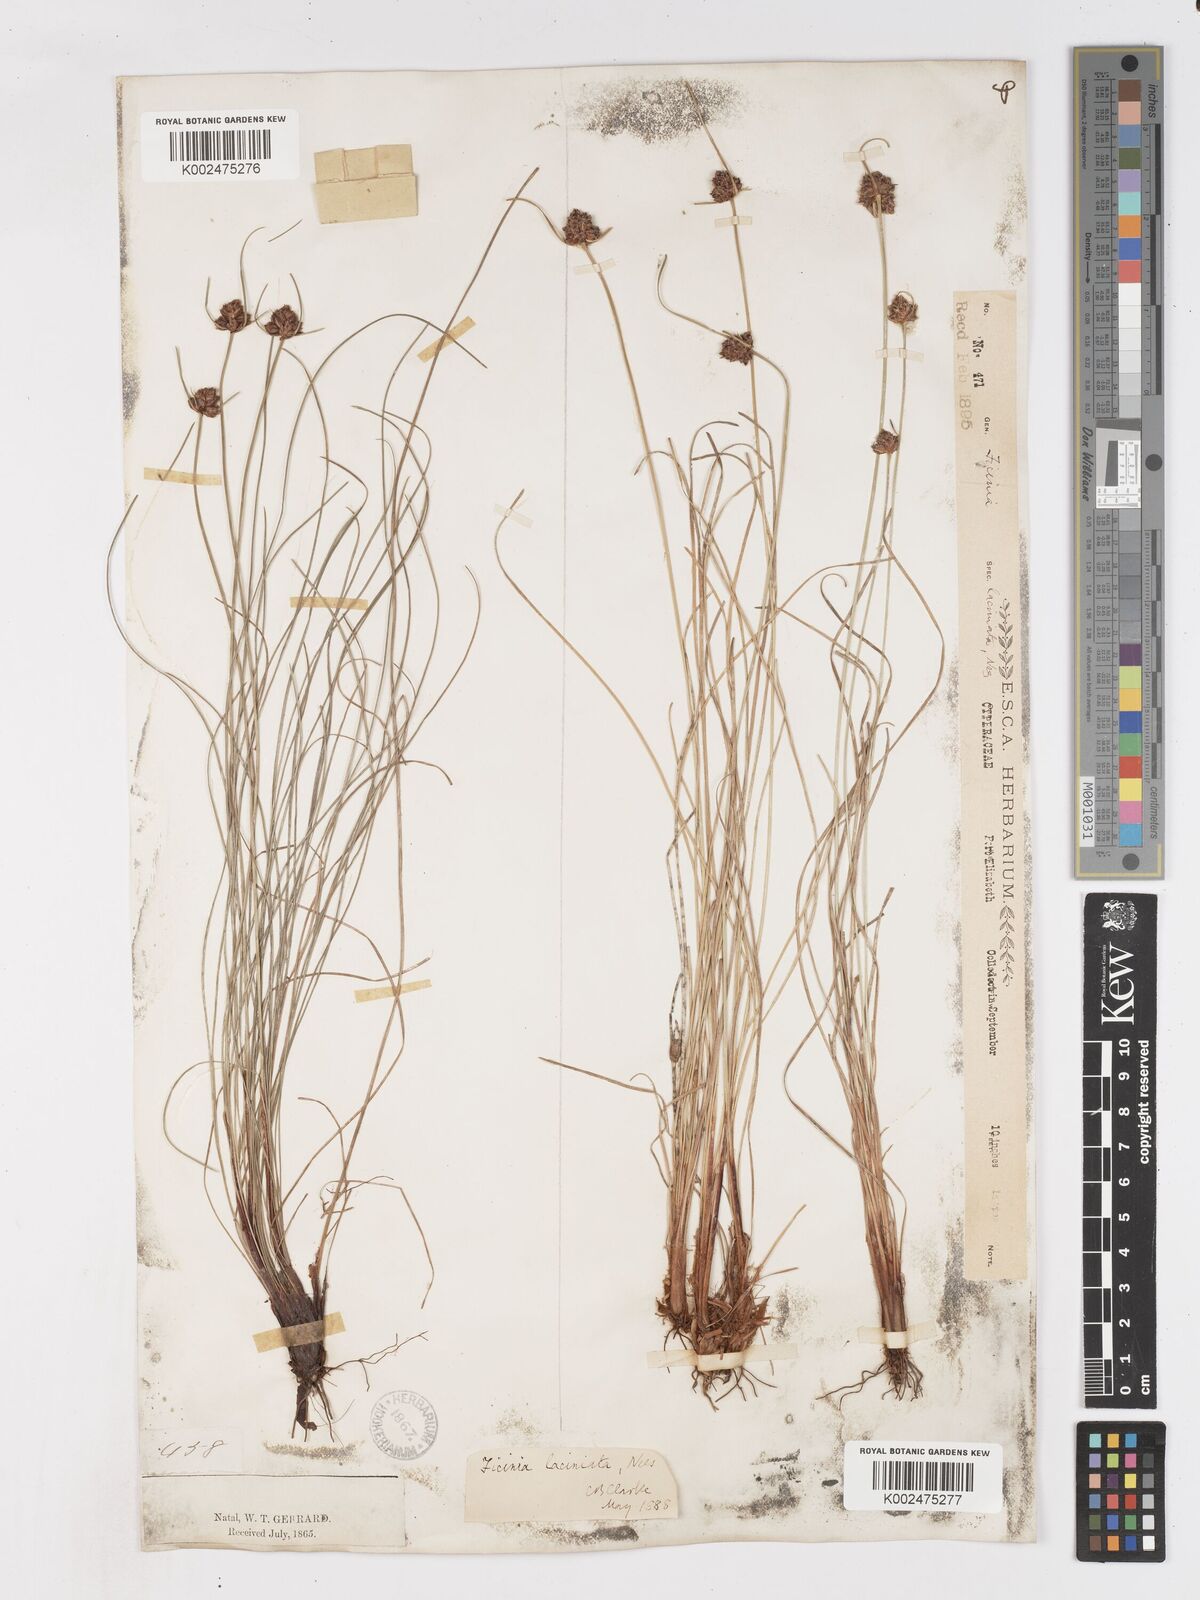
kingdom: Plantae
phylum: Tracheophyta
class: Liliopsida
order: Poales
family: Cyperaceae
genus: Ficinia
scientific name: Ficinia laciniata
